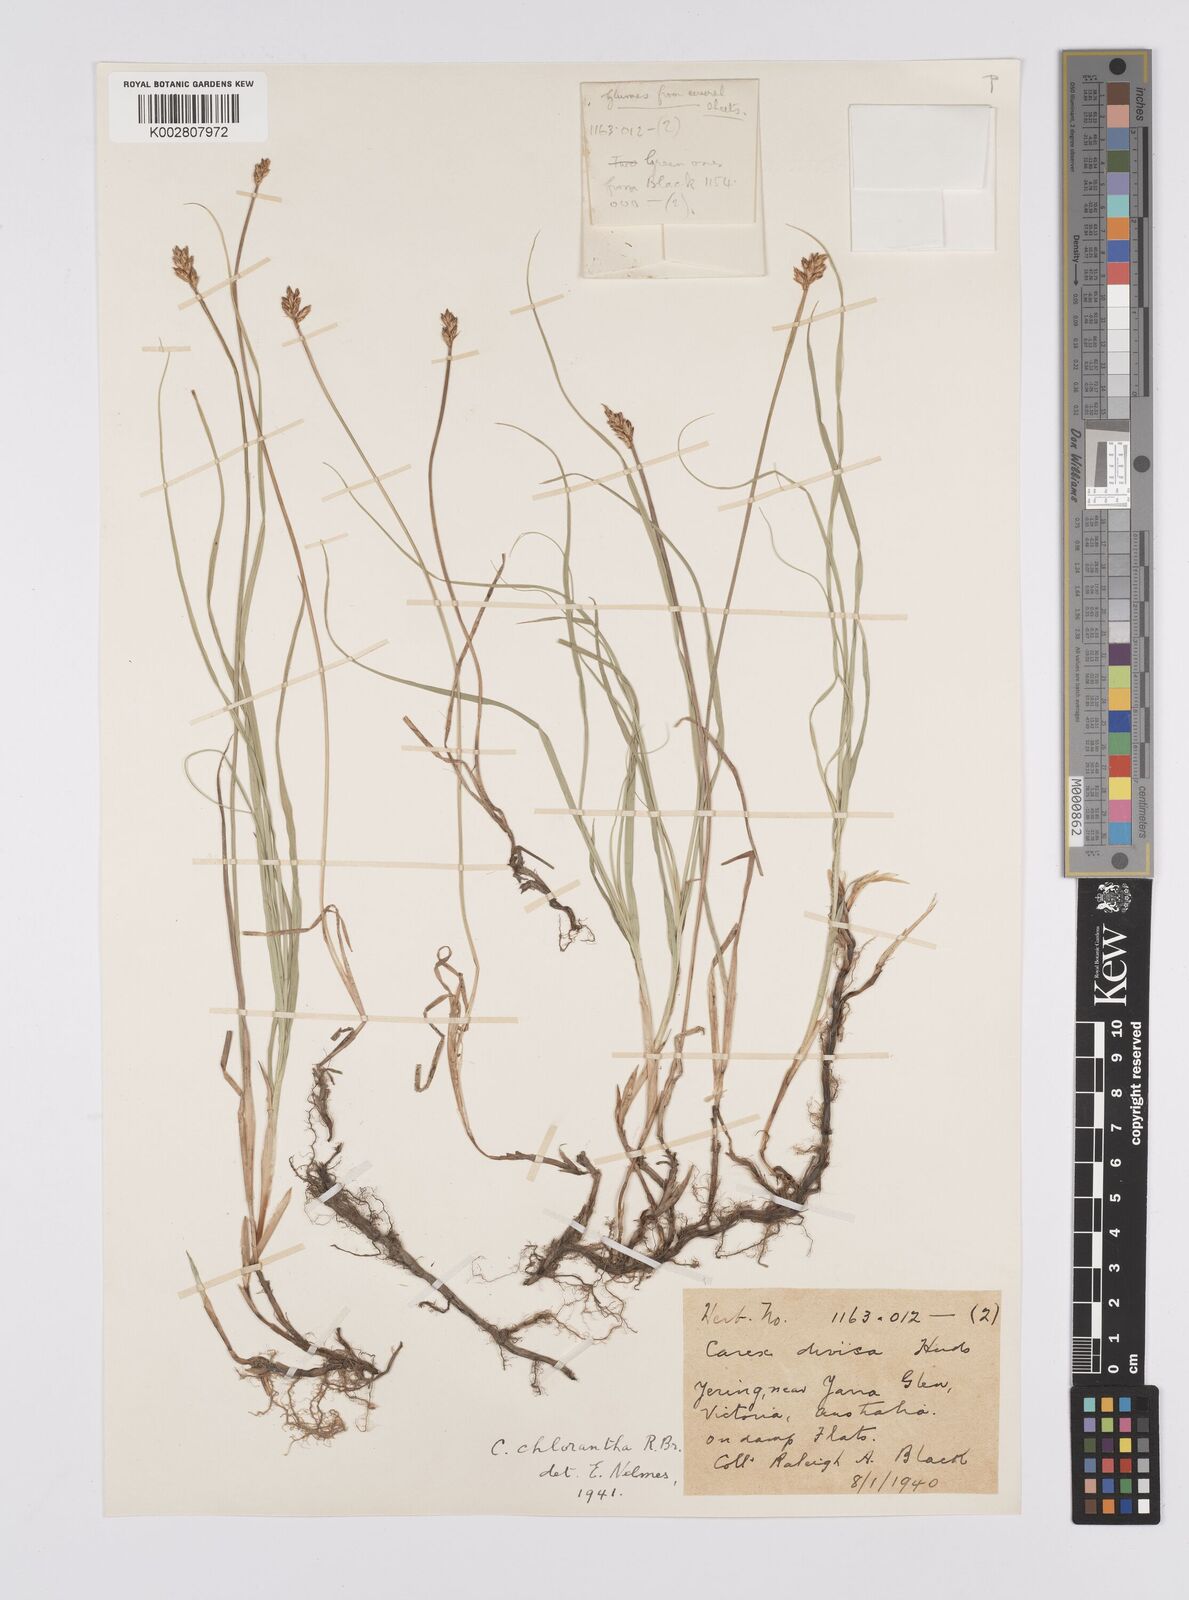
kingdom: Plantae
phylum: Tracheophyta
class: Liliopsida
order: Poales
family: Cyperaceae
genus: Carex
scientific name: Carex chlorantha
